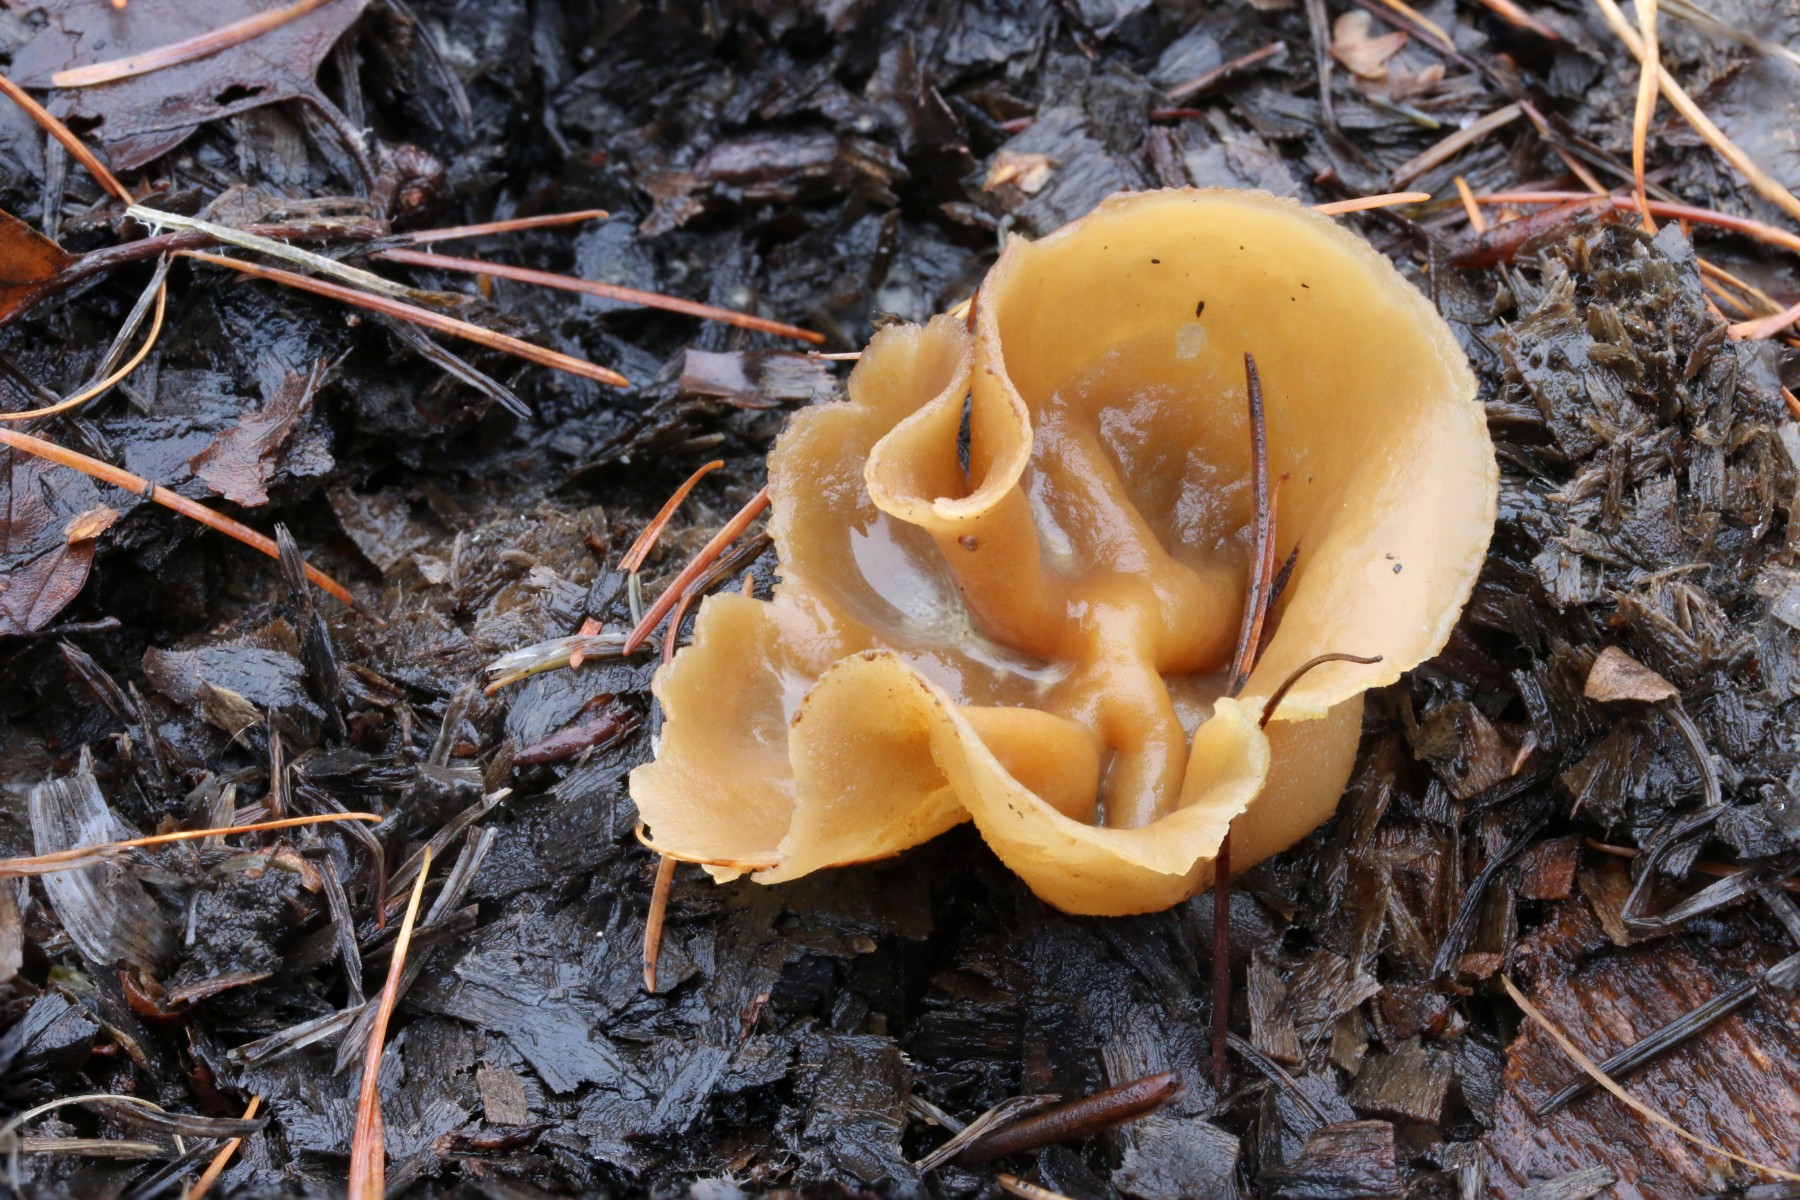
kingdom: Fungi
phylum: Ascomycota
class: Pezizomycetes
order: Pezizales
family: Pezizaceae
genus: Peziza
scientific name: Peziza
